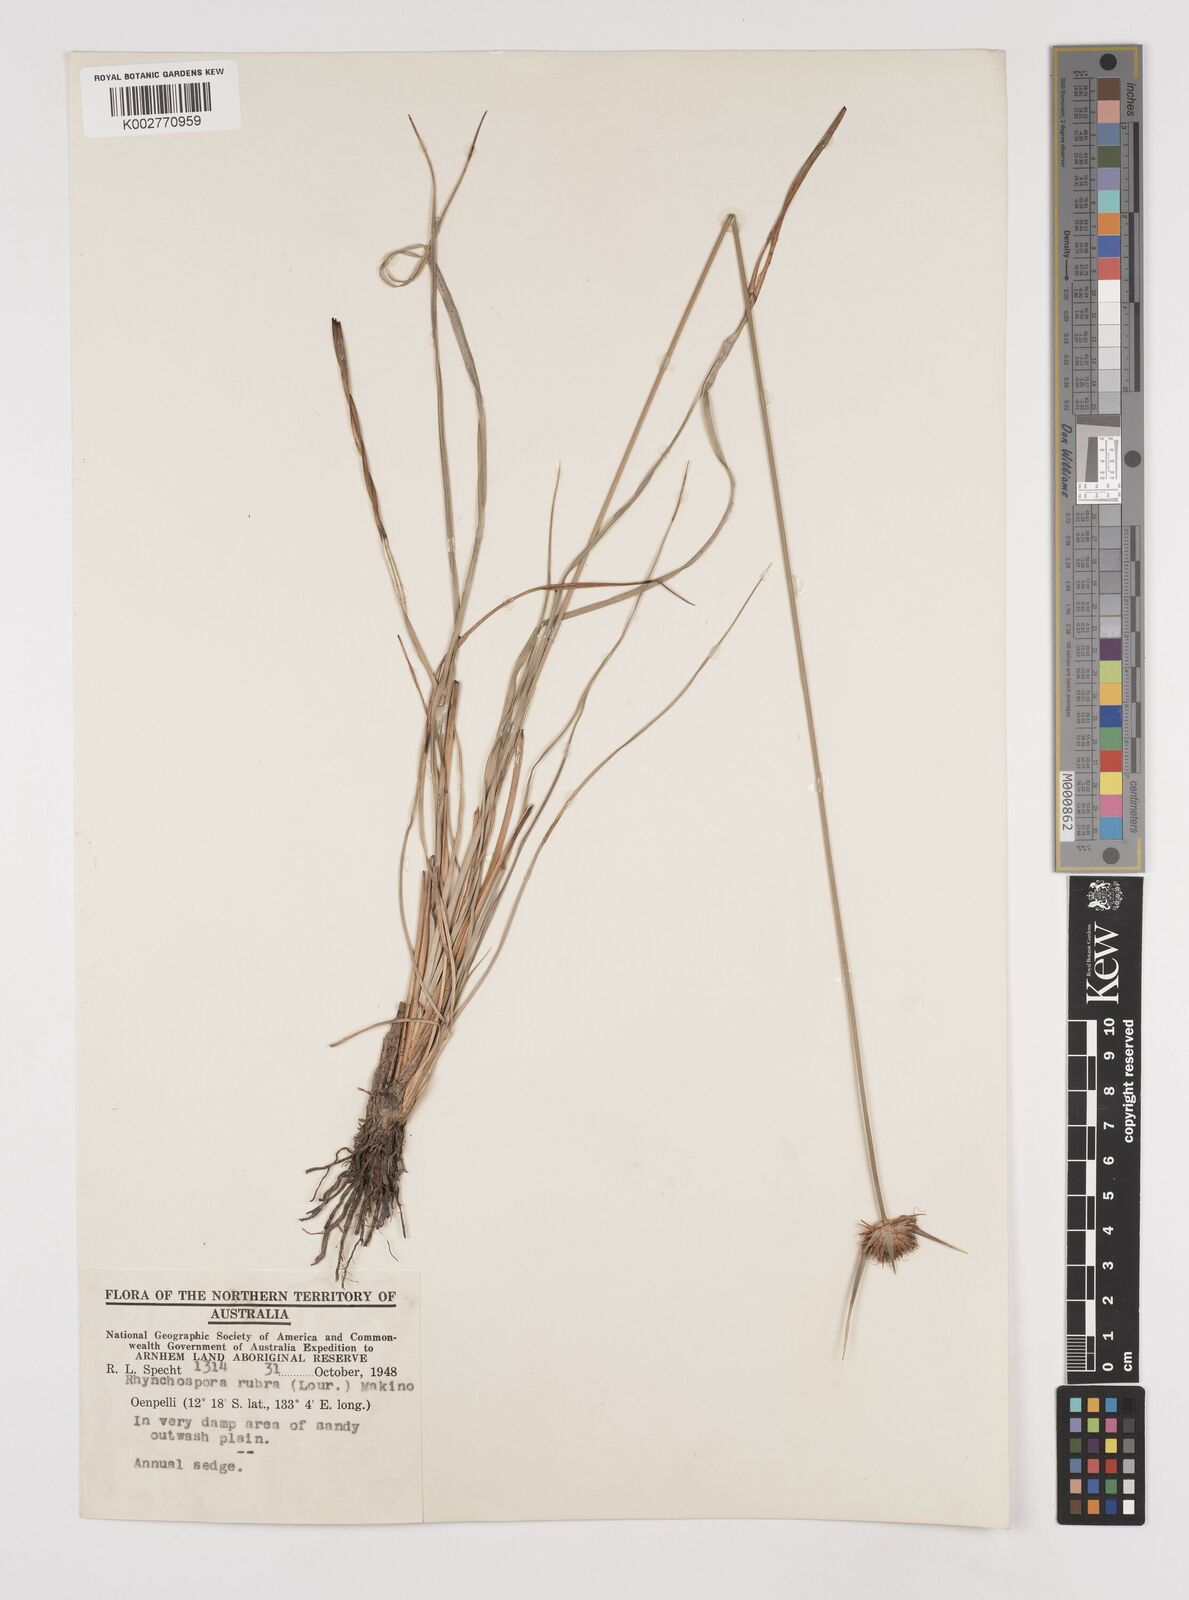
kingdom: Plantae
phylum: Tracheophyta
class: Liliopsida
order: Poales
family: Cyperaceae
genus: Rhynchospora
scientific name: Rhynchospora rubra
